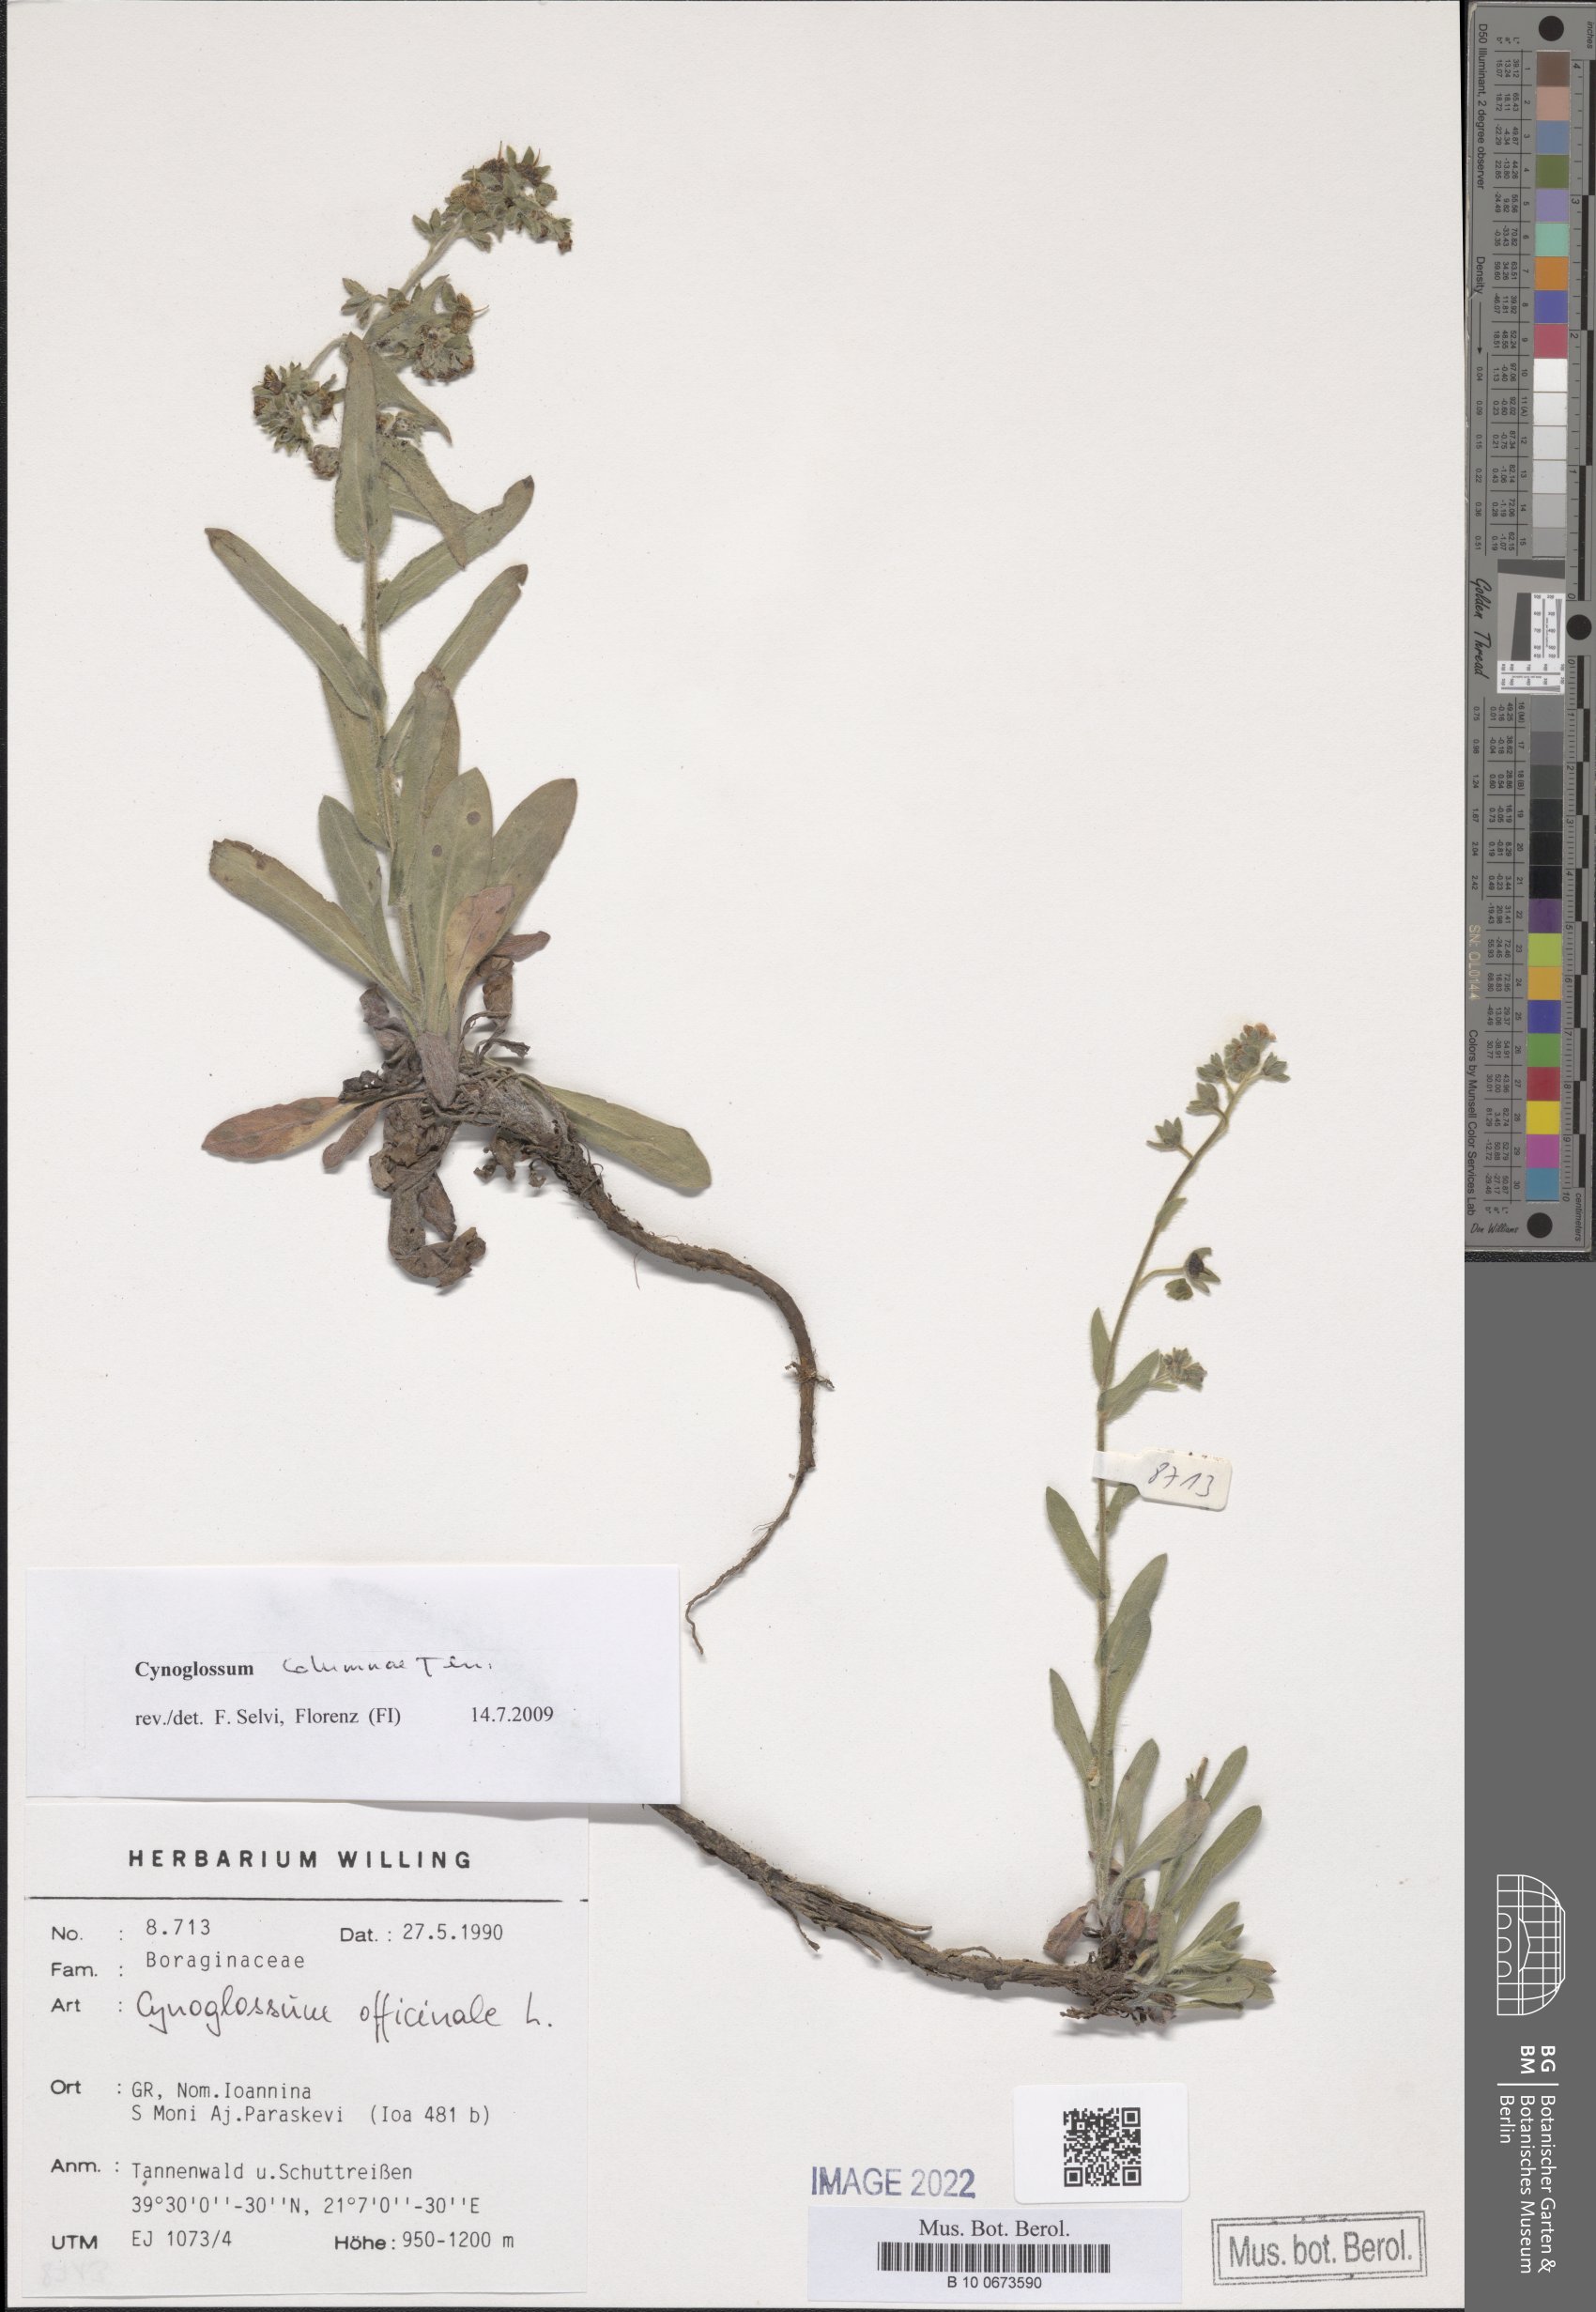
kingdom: Plantae
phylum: Tracheophyta
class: Magnoliopsida
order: Boraginales
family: Boraginaceae
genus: Rindera
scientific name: Rindera columnae
